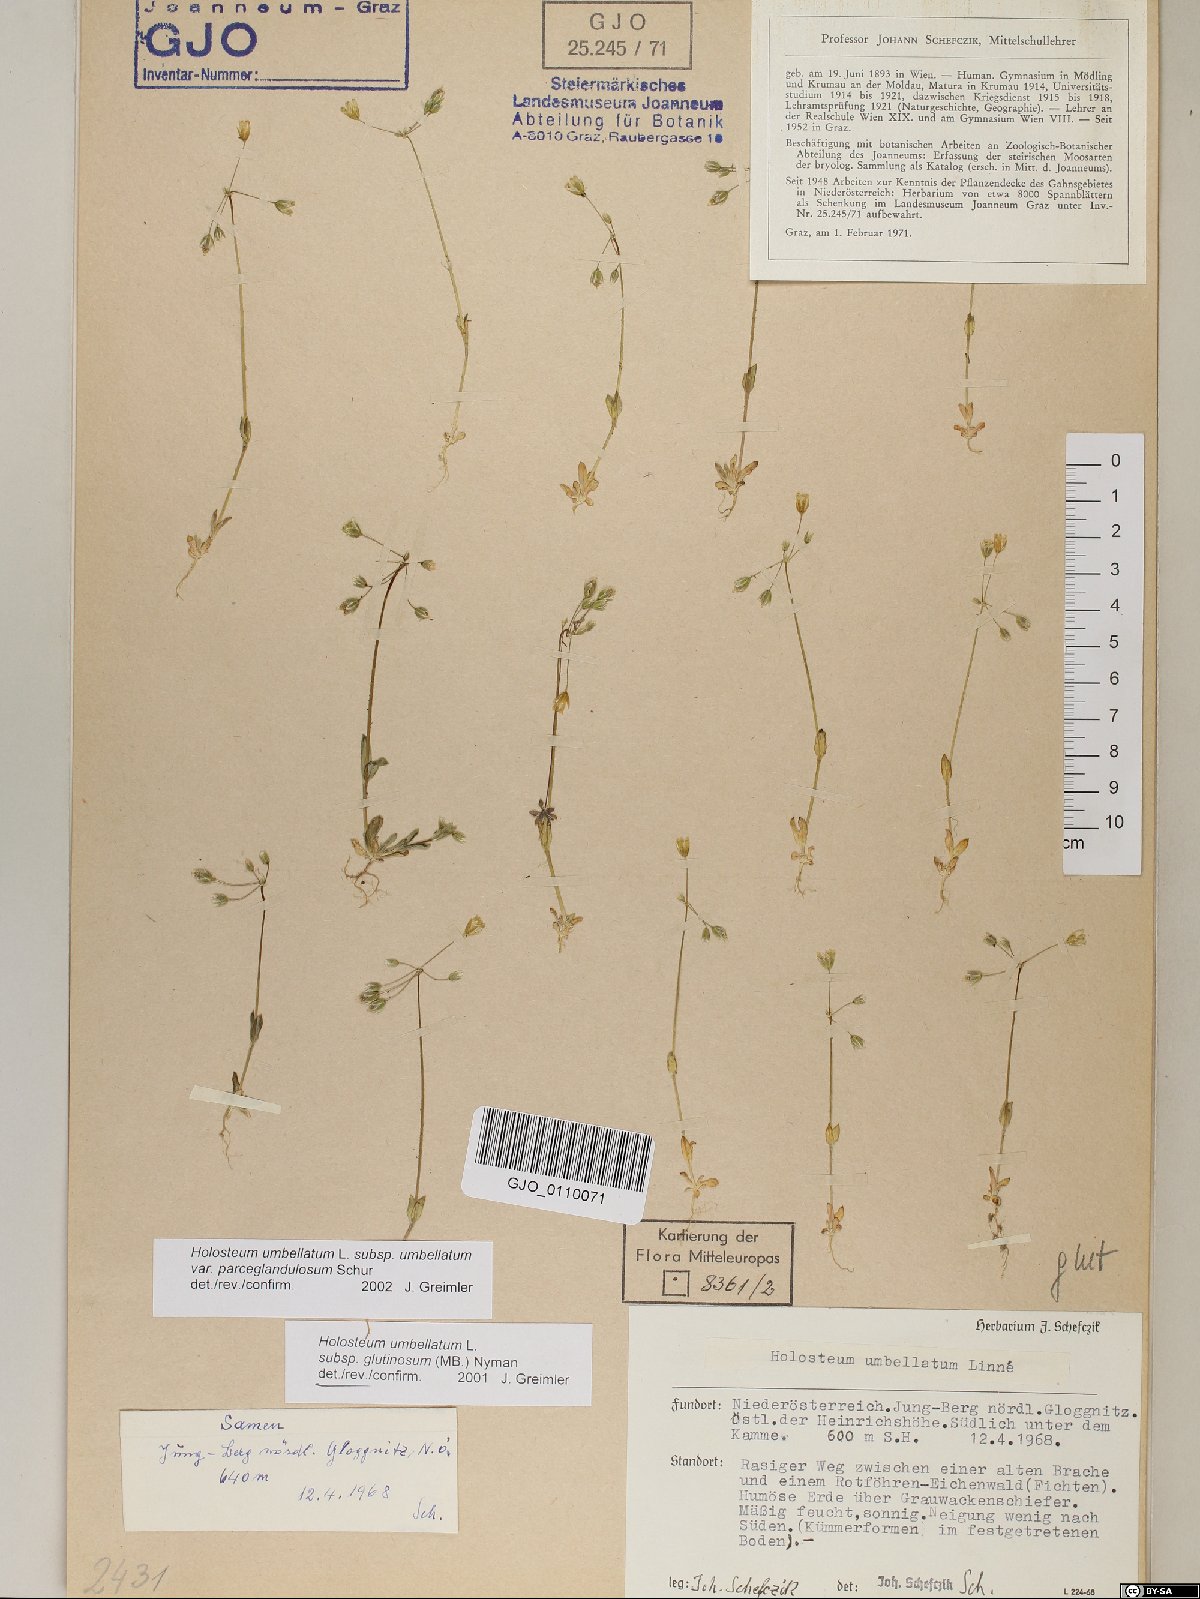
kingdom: Plantae
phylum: Tracheophyta
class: Magnoliopsida
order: Caryophyllales
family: Caryophyllaceae
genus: Holosteum
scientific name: Holosteum umbellatum
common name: Jagged chickweed
